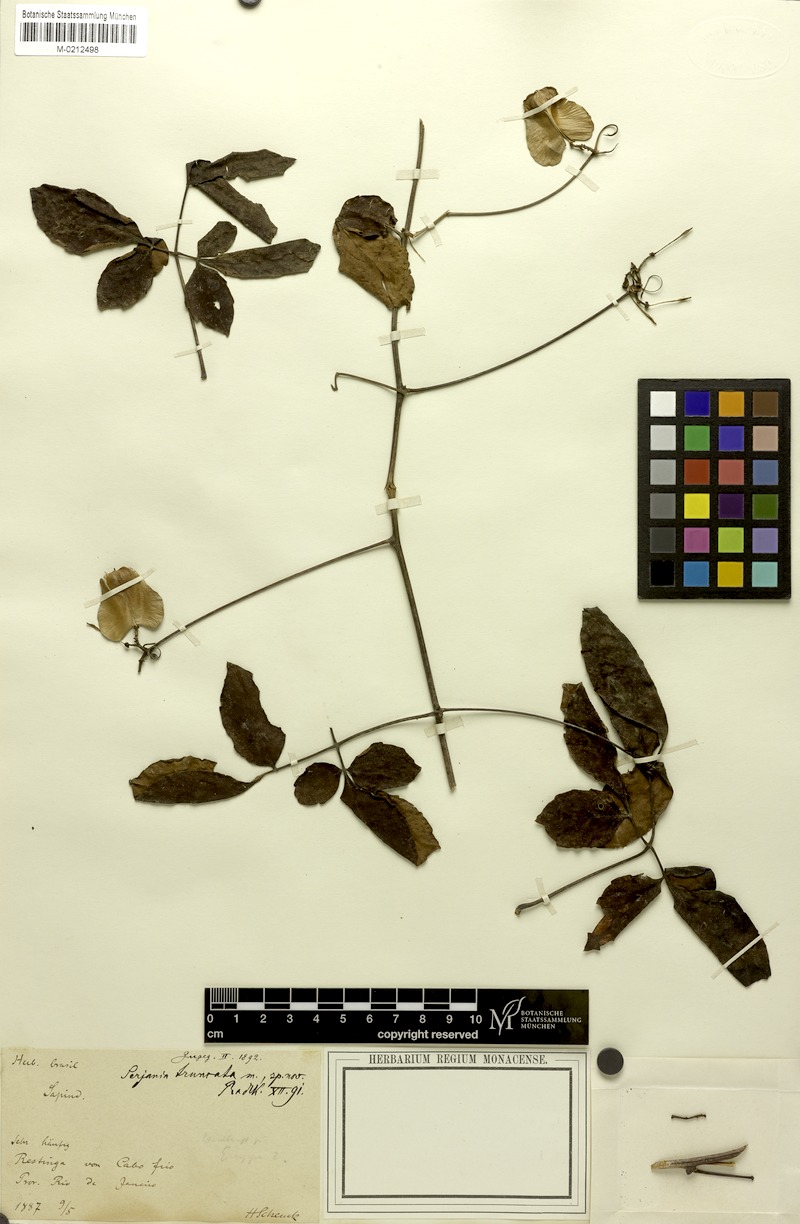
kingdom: Plantae
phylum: Tracheophyta
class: Magnoliopsida
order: Sapindales
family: Sapindaceae
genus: Serjania
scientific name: Serjania truncata
